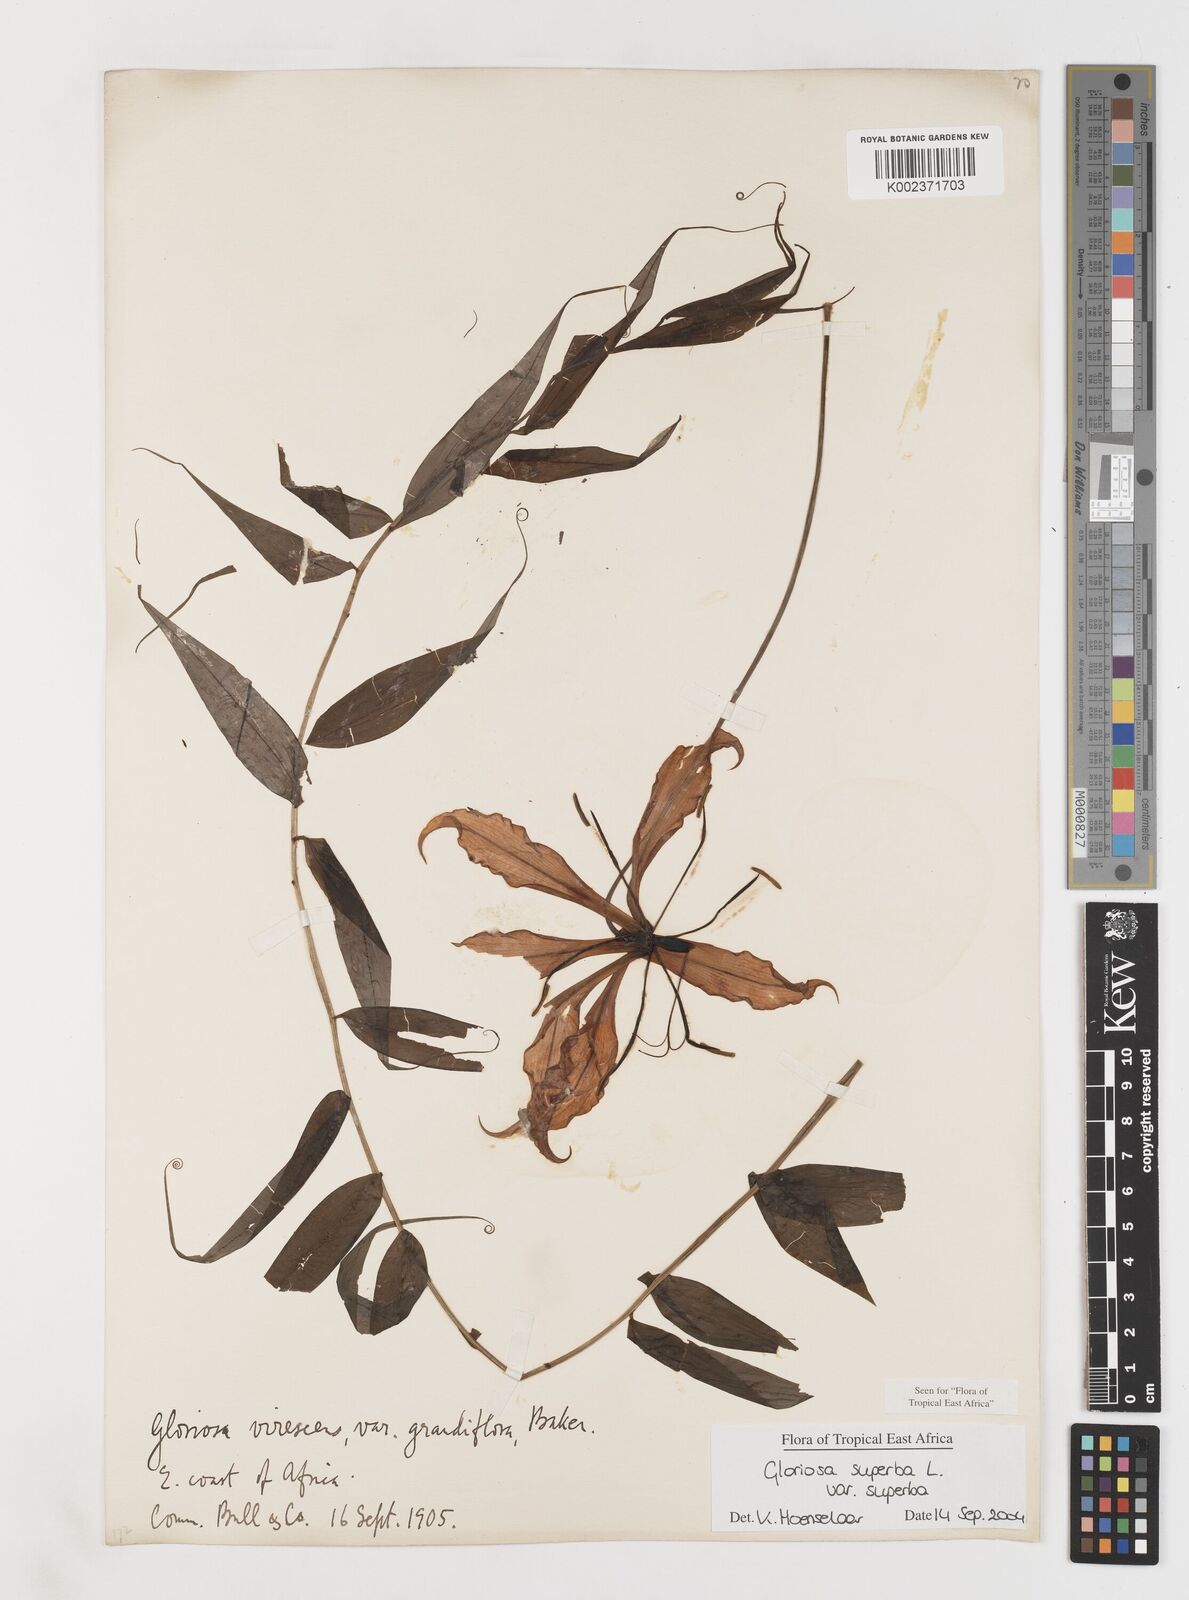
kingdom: Plantae
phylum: Tracheophyta
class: Liliopsida
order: Liliales
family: Colchicaceae
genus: Gloriosa
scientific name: Gloriosa simplex
